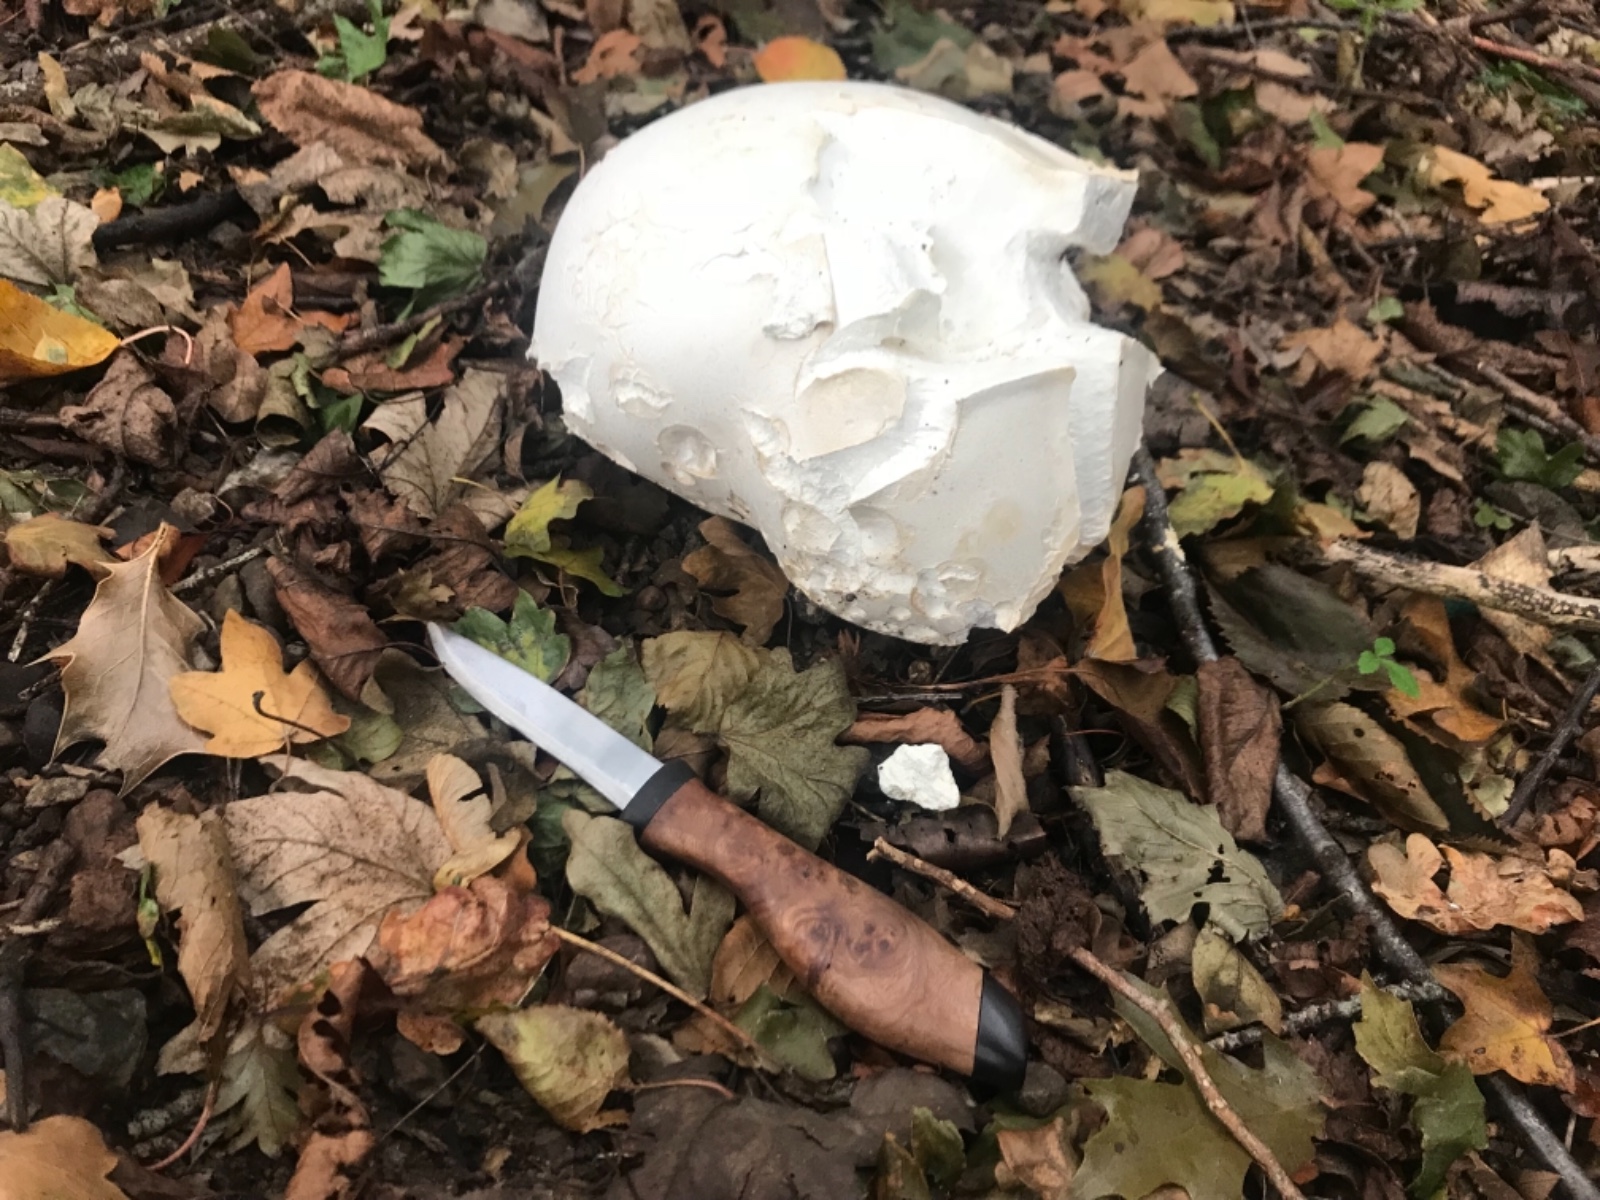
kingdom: Fungi
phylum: Basidiomycota
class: Agaricomycetes
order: Agaricales
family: Lycoperdaceae
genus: Calvatia
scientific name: Calvatia gigantea
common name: kæmpestøvbold
